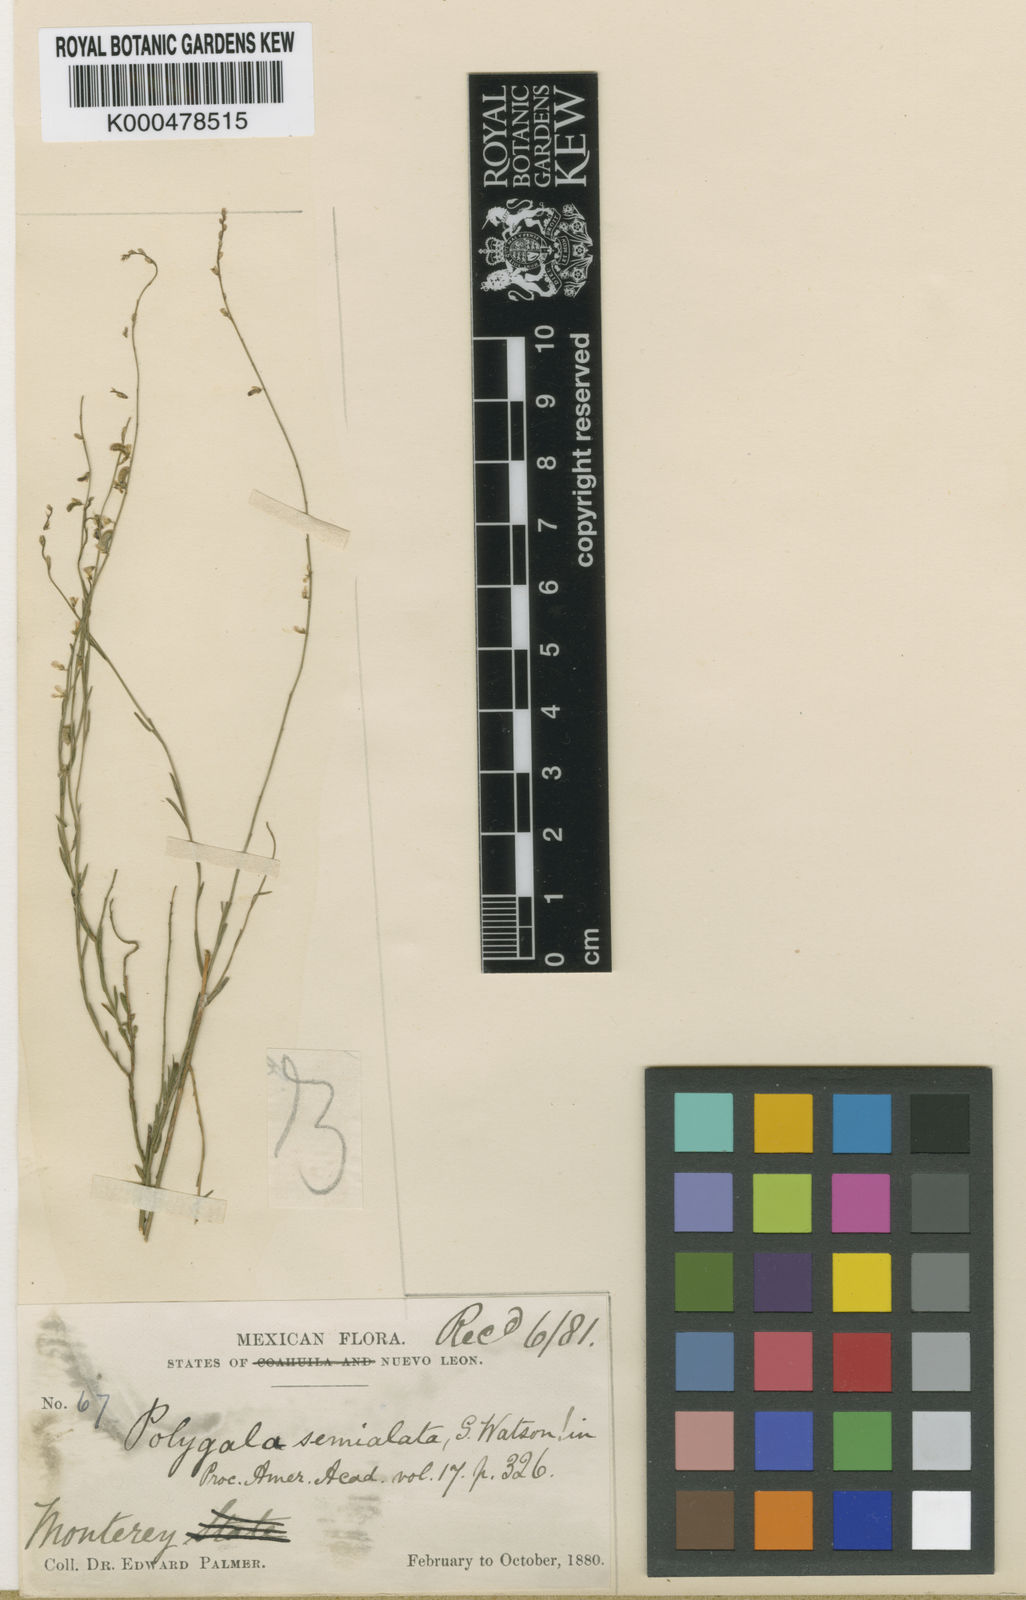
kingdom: Plantae
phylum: Tracheophyta
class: Magnoliopsida
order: Fabales
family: Polygalaceae
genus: Polygala
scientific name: Polygala semialata
